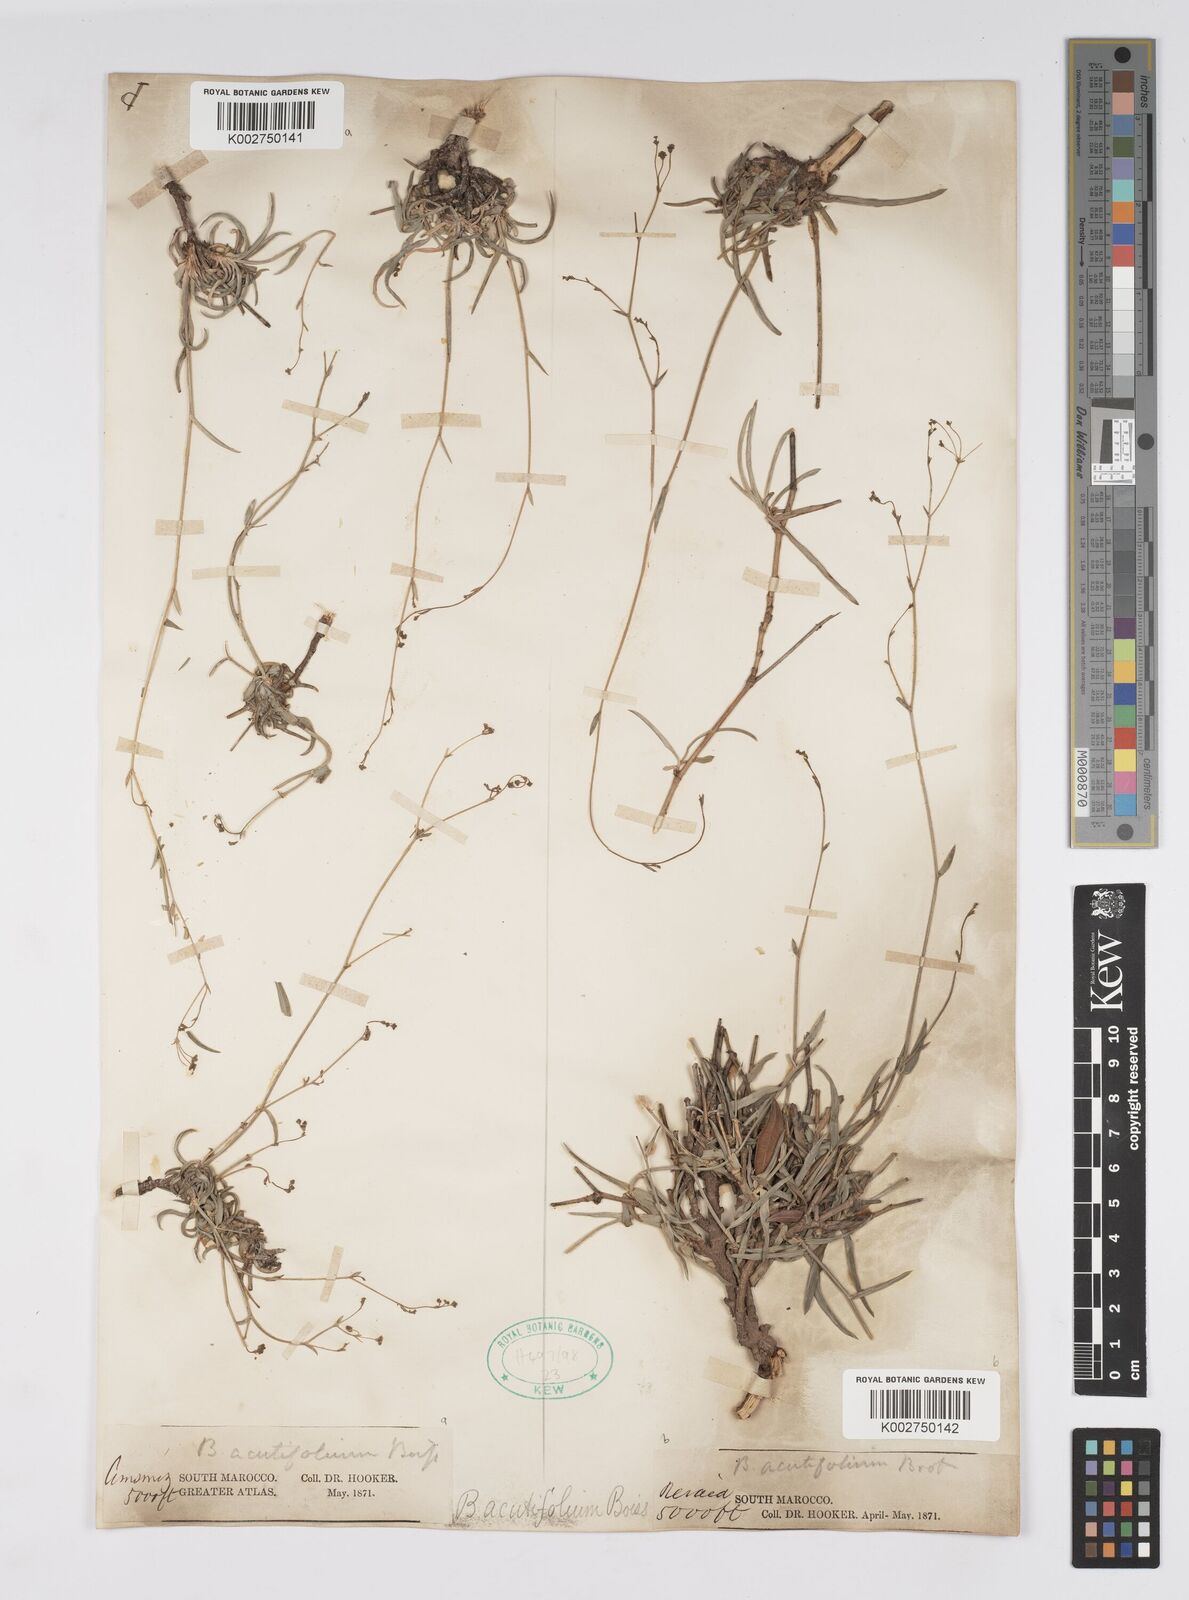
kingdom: Plantae
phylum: Tracheophyta
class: Magnoliopsida
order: Apiales
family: Apiaceae
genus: Bupleurum
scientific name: Bupleurum oligactis
